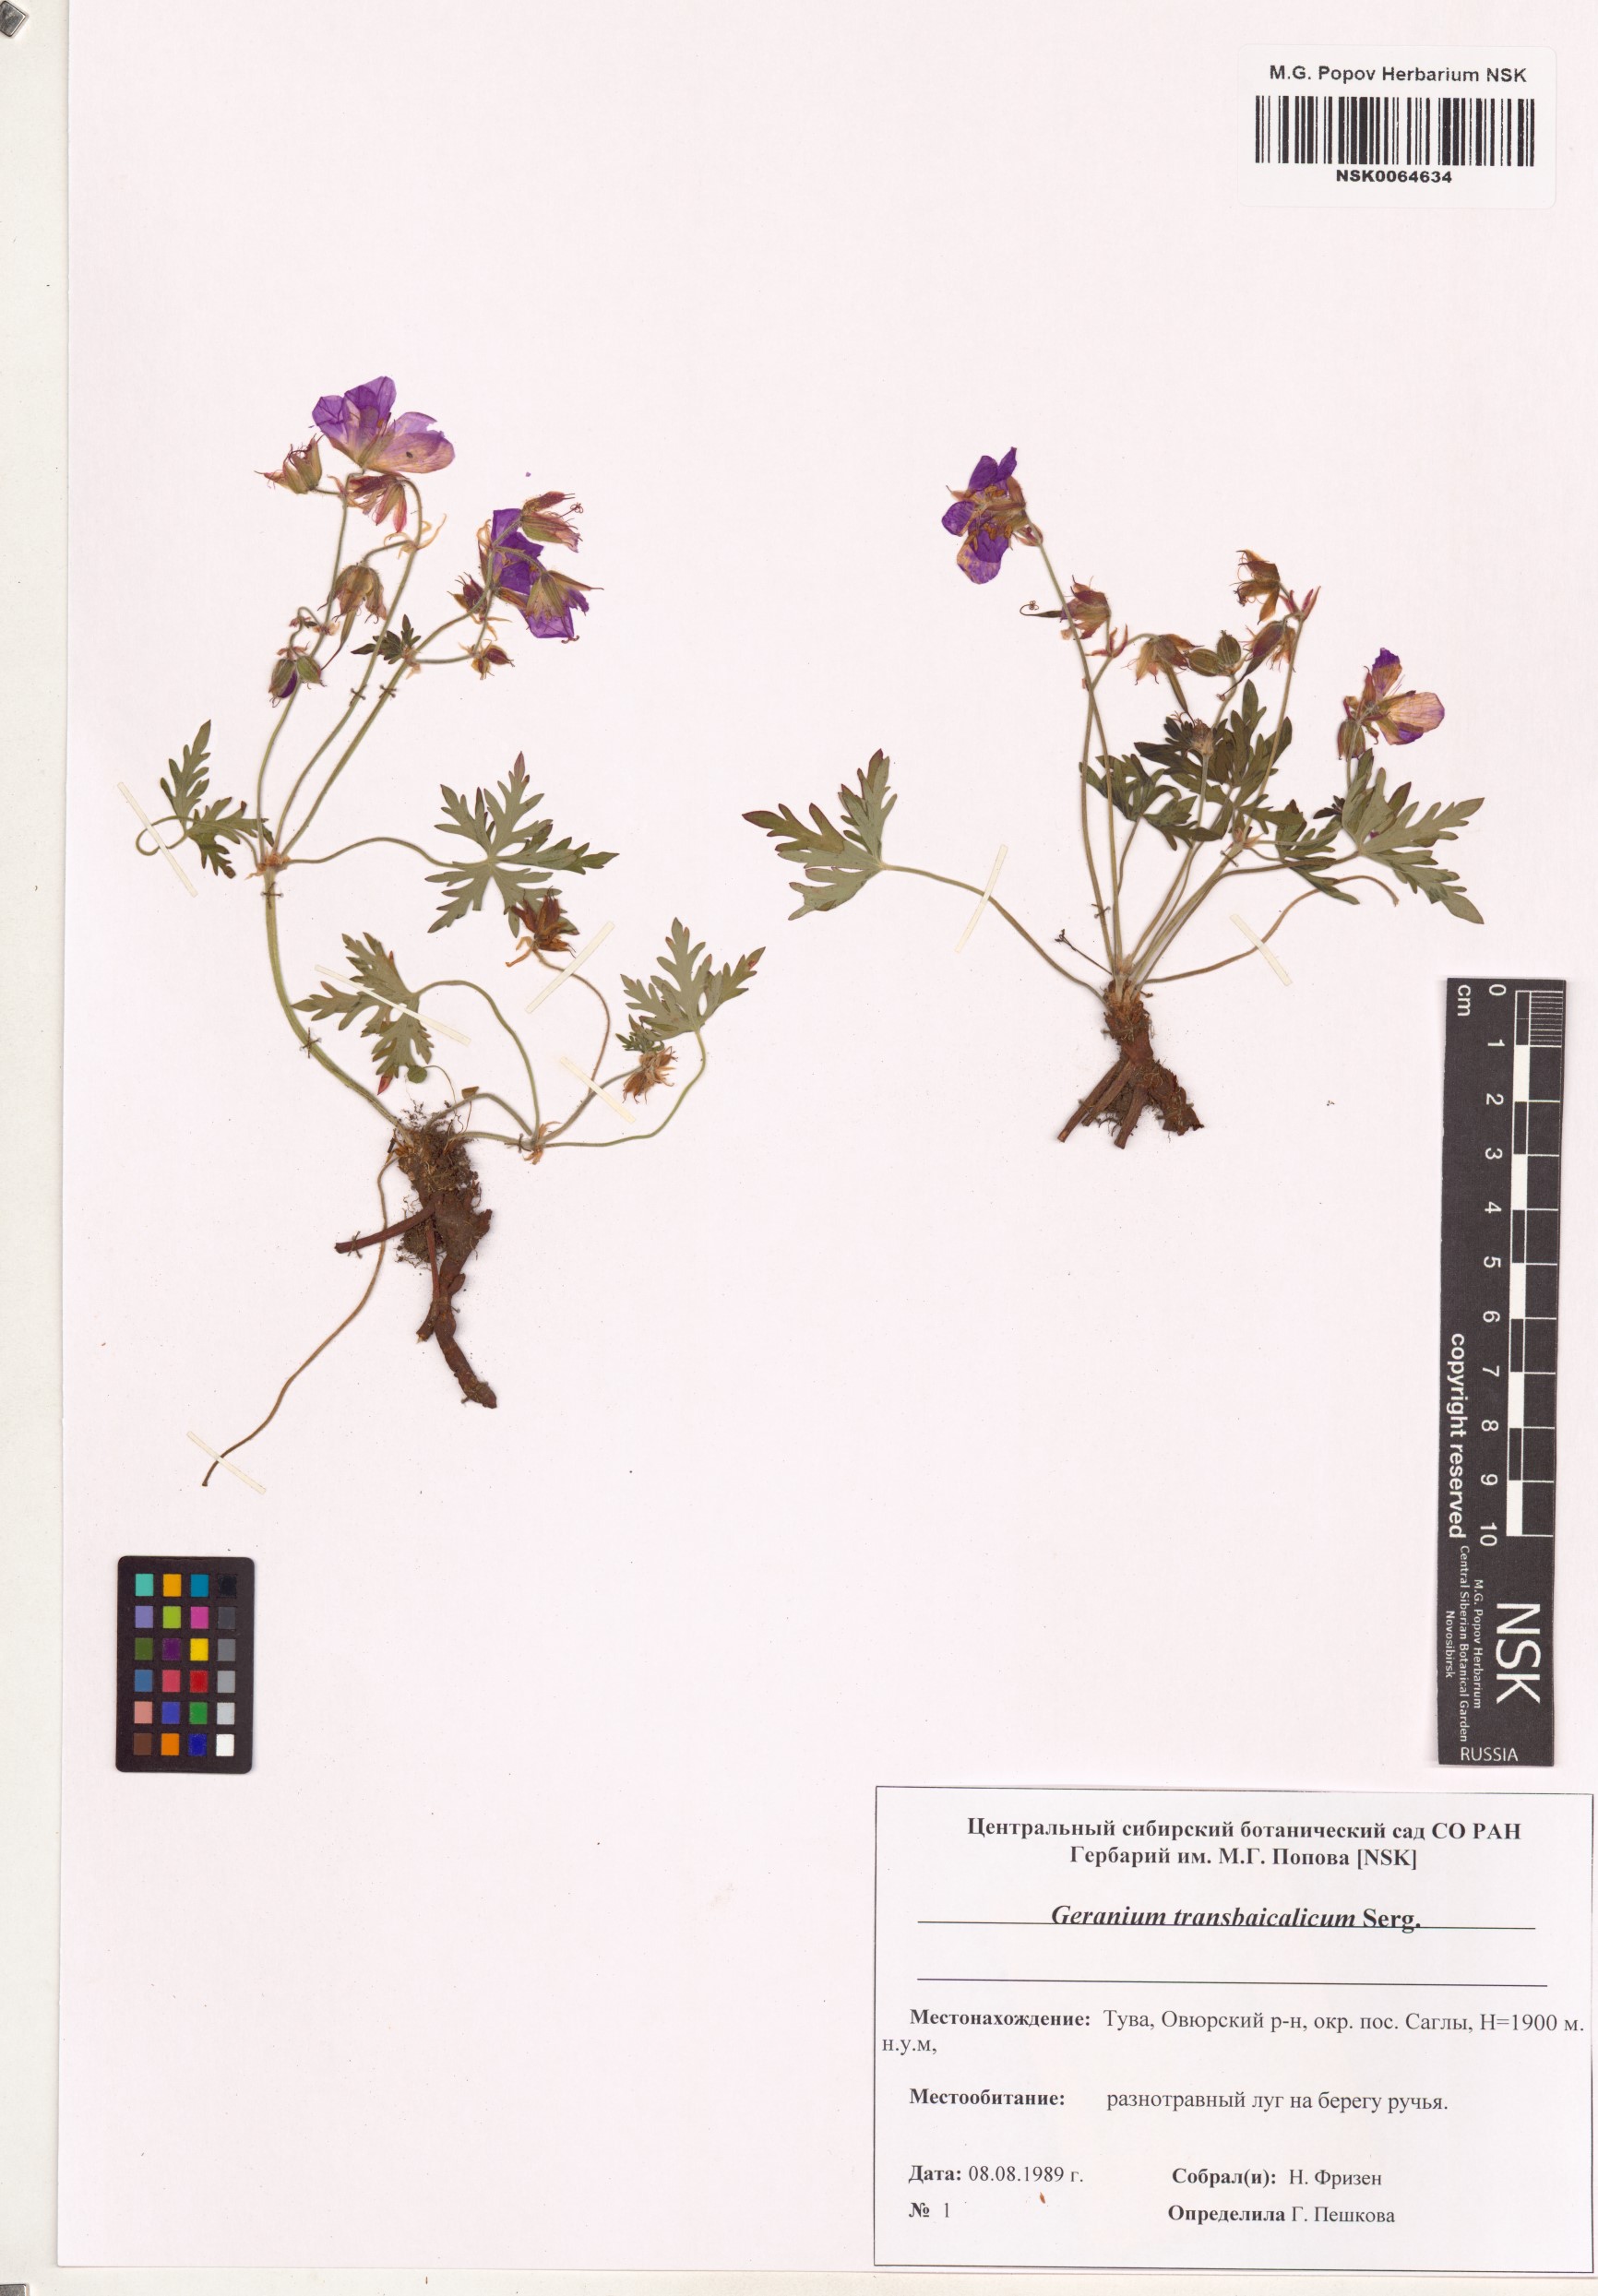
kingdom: Plantae
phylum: Tracheophyta
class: Magnoliopsida
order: Geraniales
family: Geraniaceae
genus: Geranium
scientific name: Geranium pratense
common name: Meadow crane's-bill
